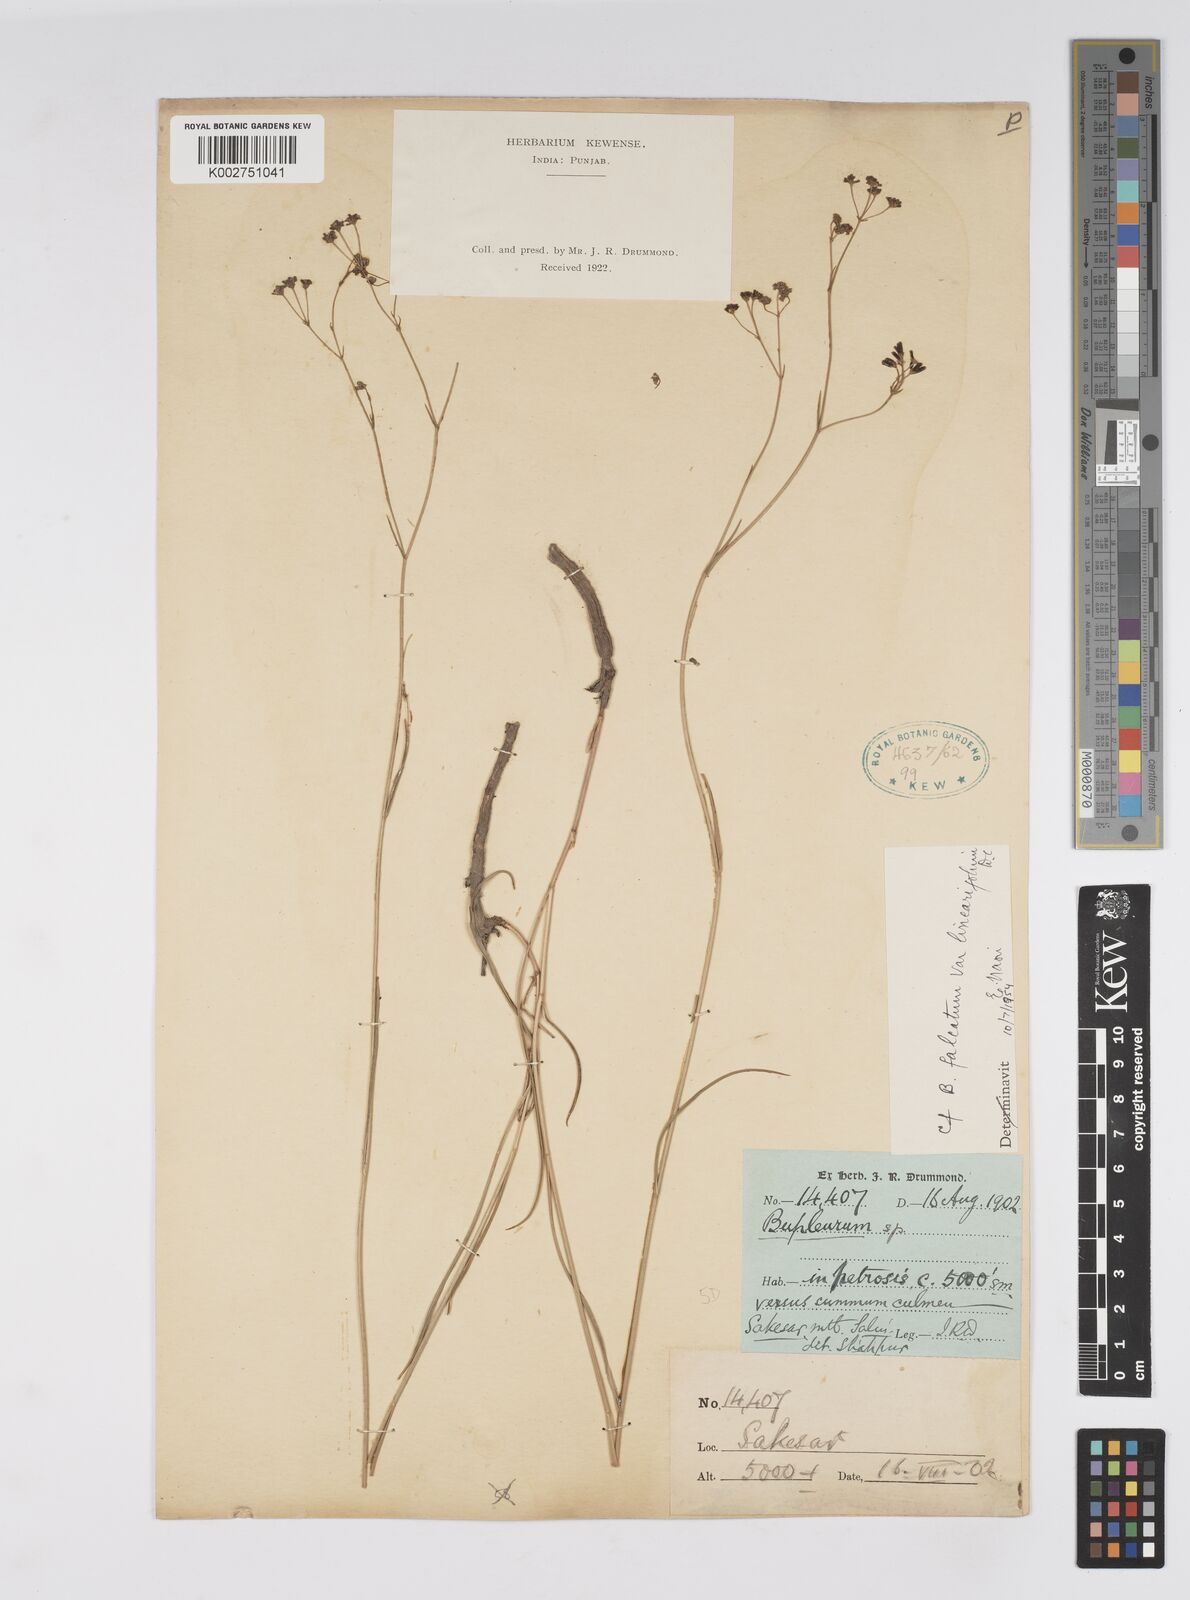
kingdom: Plantae
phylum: Tracheophyta
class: Magnoliopsida
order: Apiales
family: Apiaceae
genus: Bupleurum
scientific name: Bupleurum exaltatum
